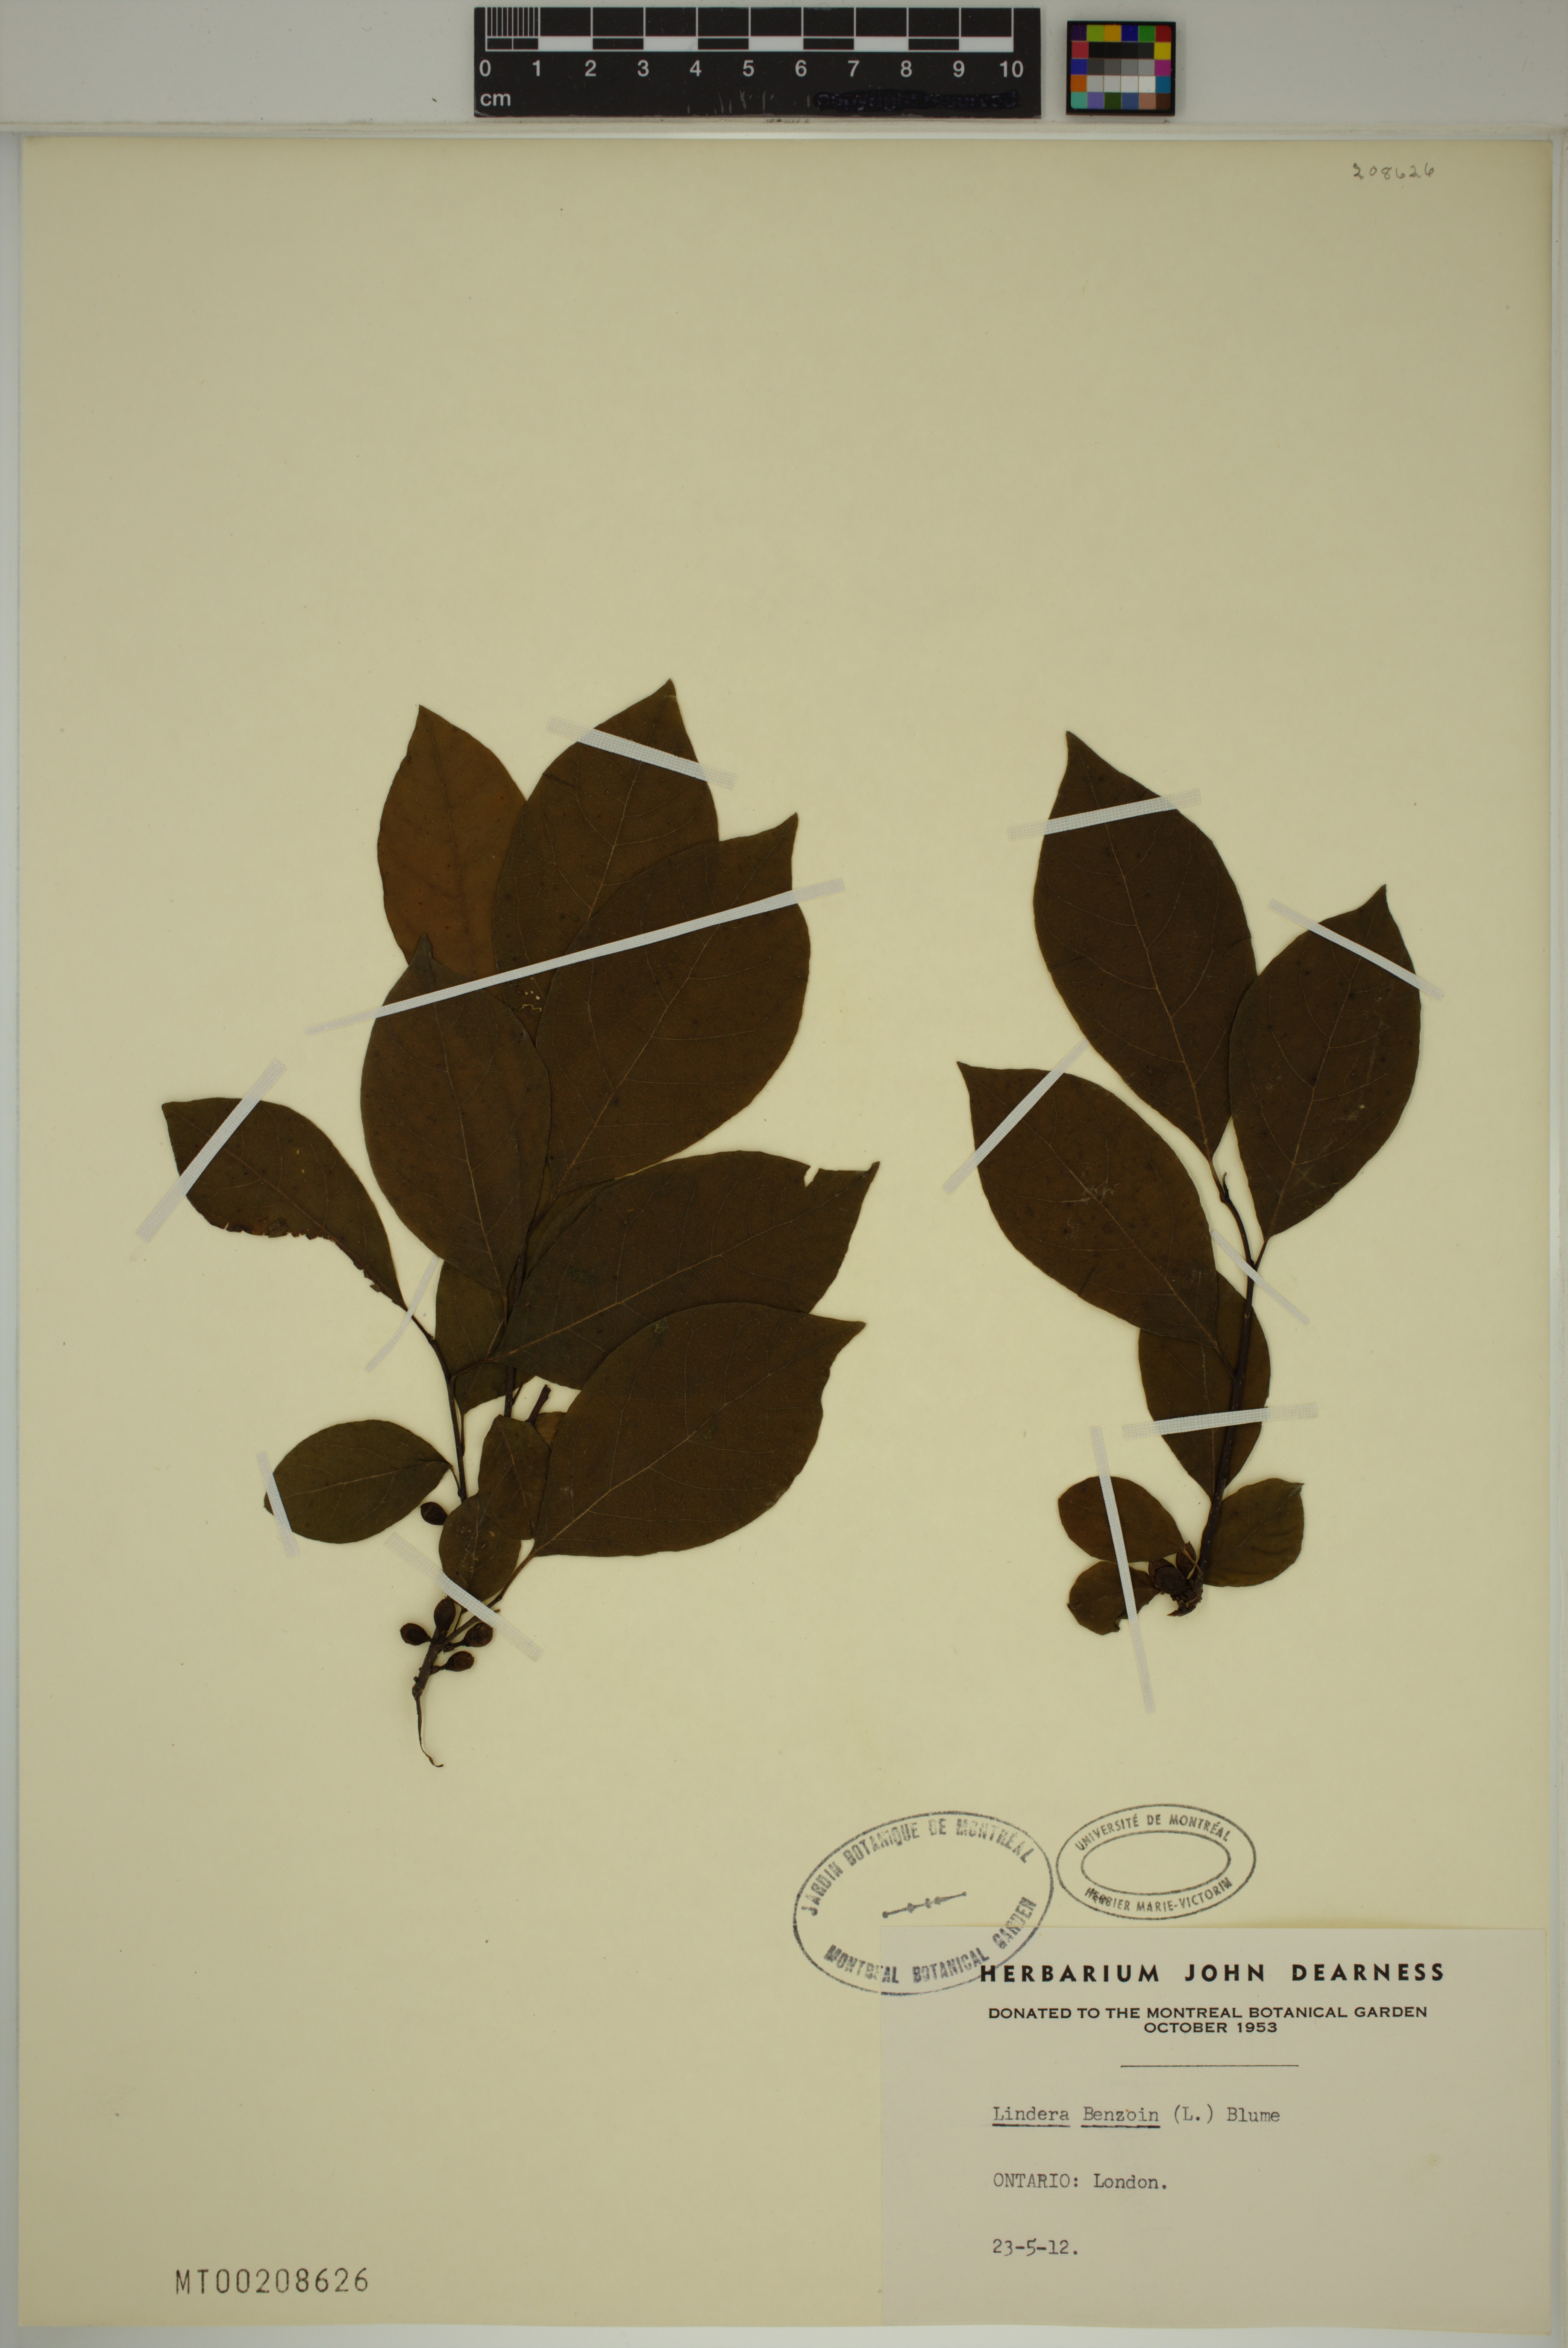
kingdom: Plantae
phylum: Tracheophyta
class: Magnoliopsida
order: Laurales
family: Lauraceae
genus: Lindera
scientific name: Lindera benzoin
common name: Spicebush
